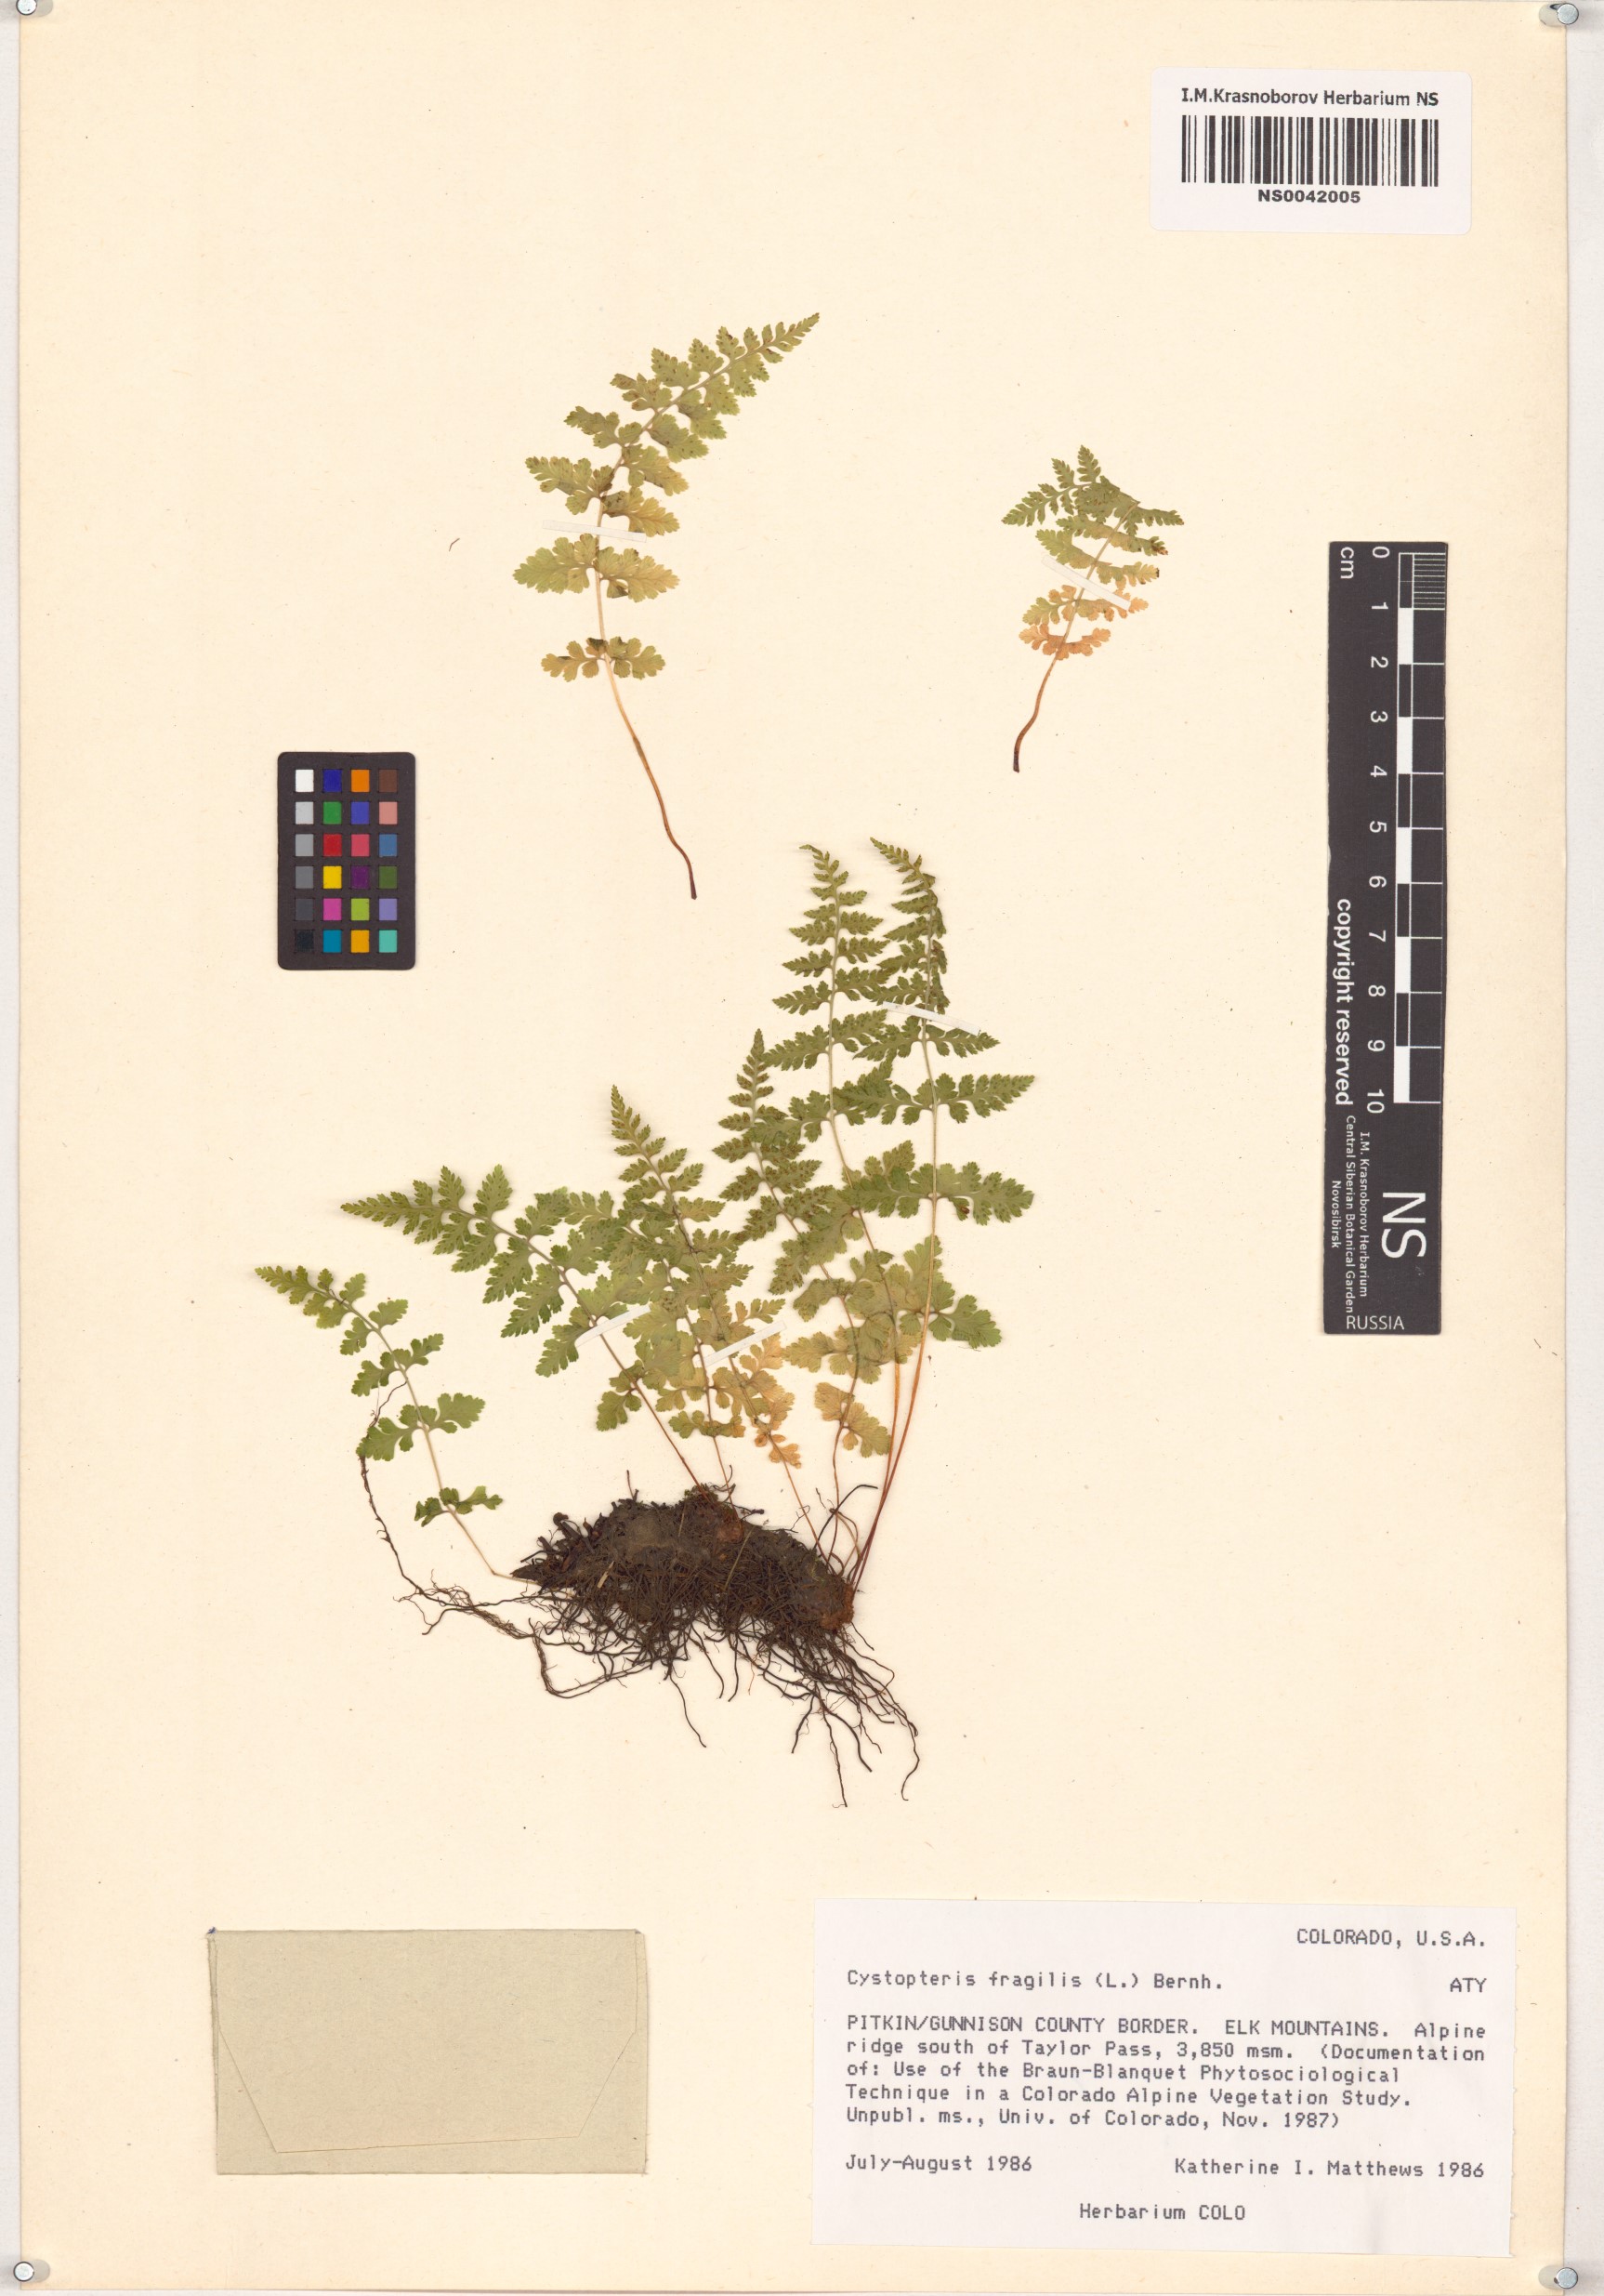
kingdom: Plantae
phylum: Tracheophyta
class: Polypodiopsida
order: Polypodiales
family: Cystopteridaceae
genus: Cystopteris
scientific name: Cystopteris fragilis
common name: Brittle bladder fern
